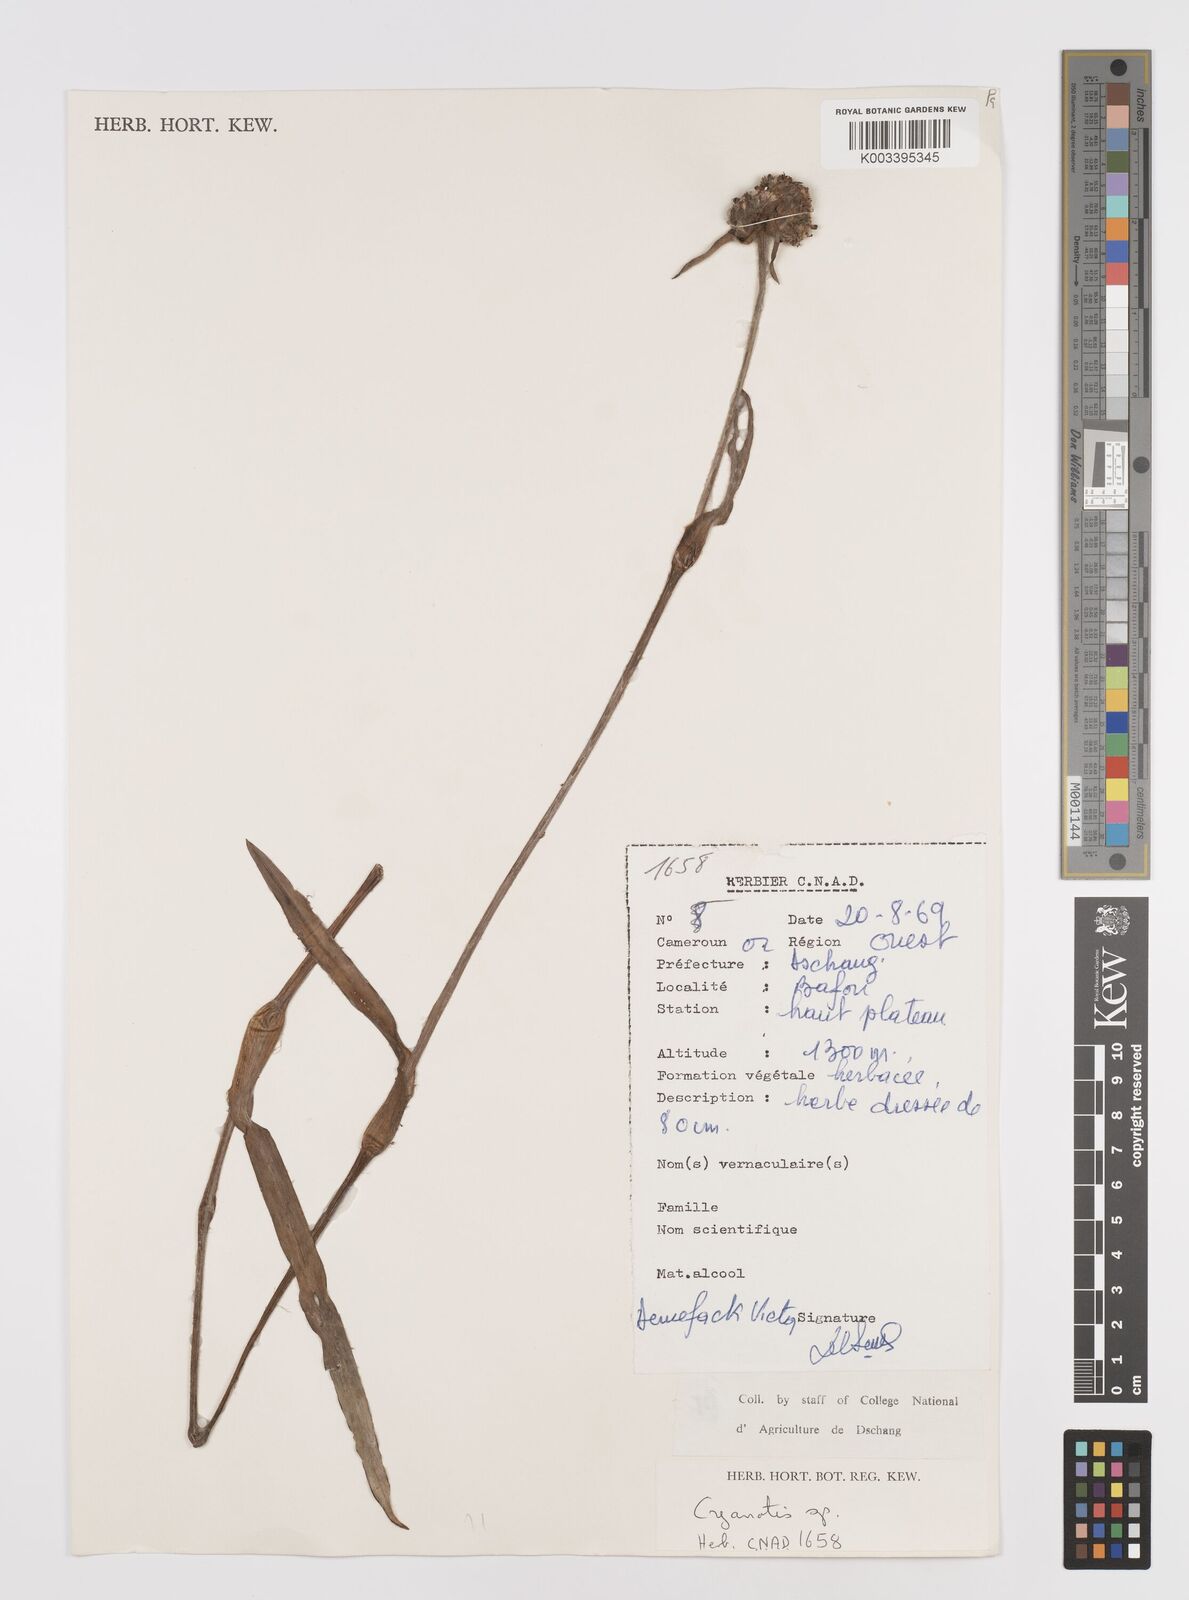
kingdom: Plantae
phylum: Tracheophyta
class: Liliopsida
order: Commelinales
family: Commelinaceae
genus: Cyanotis
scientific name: Cyanotis
